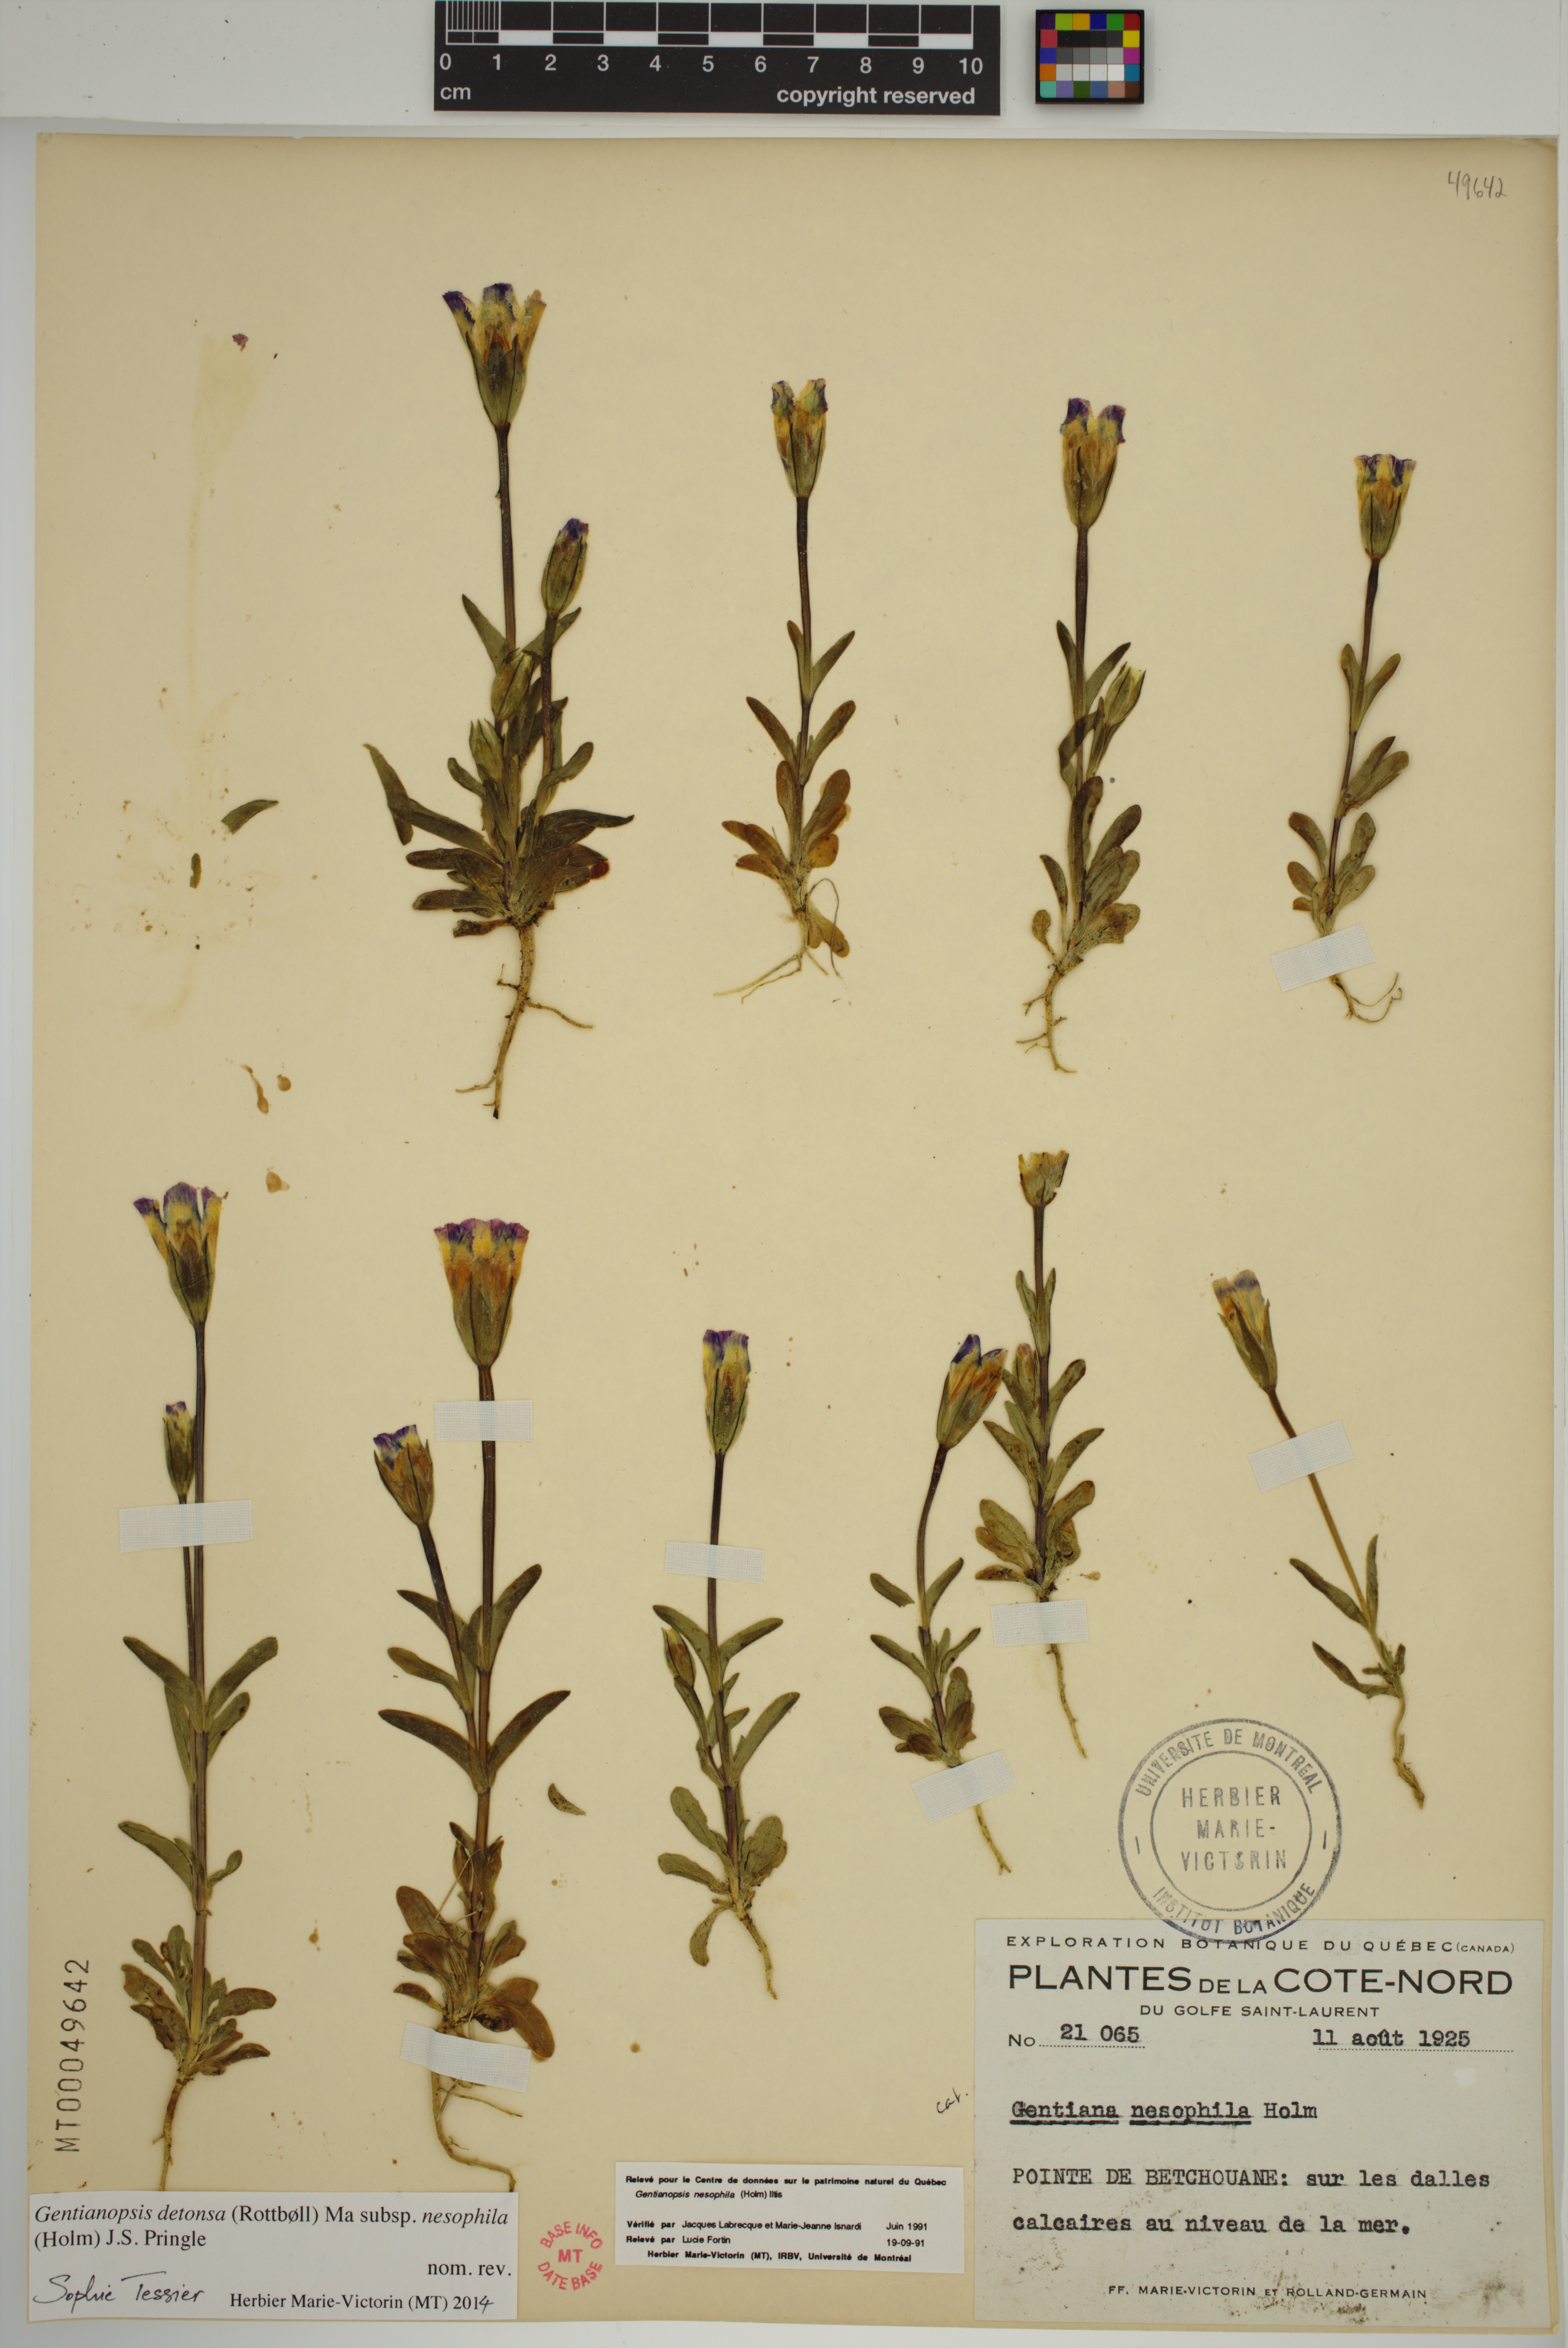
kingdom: Plantae
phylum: Tracheophyta
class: Magnoliopsida
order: Gentianales
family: Gentianaceae
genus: Gentianopsis
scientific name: Gentianopsis nesophila
